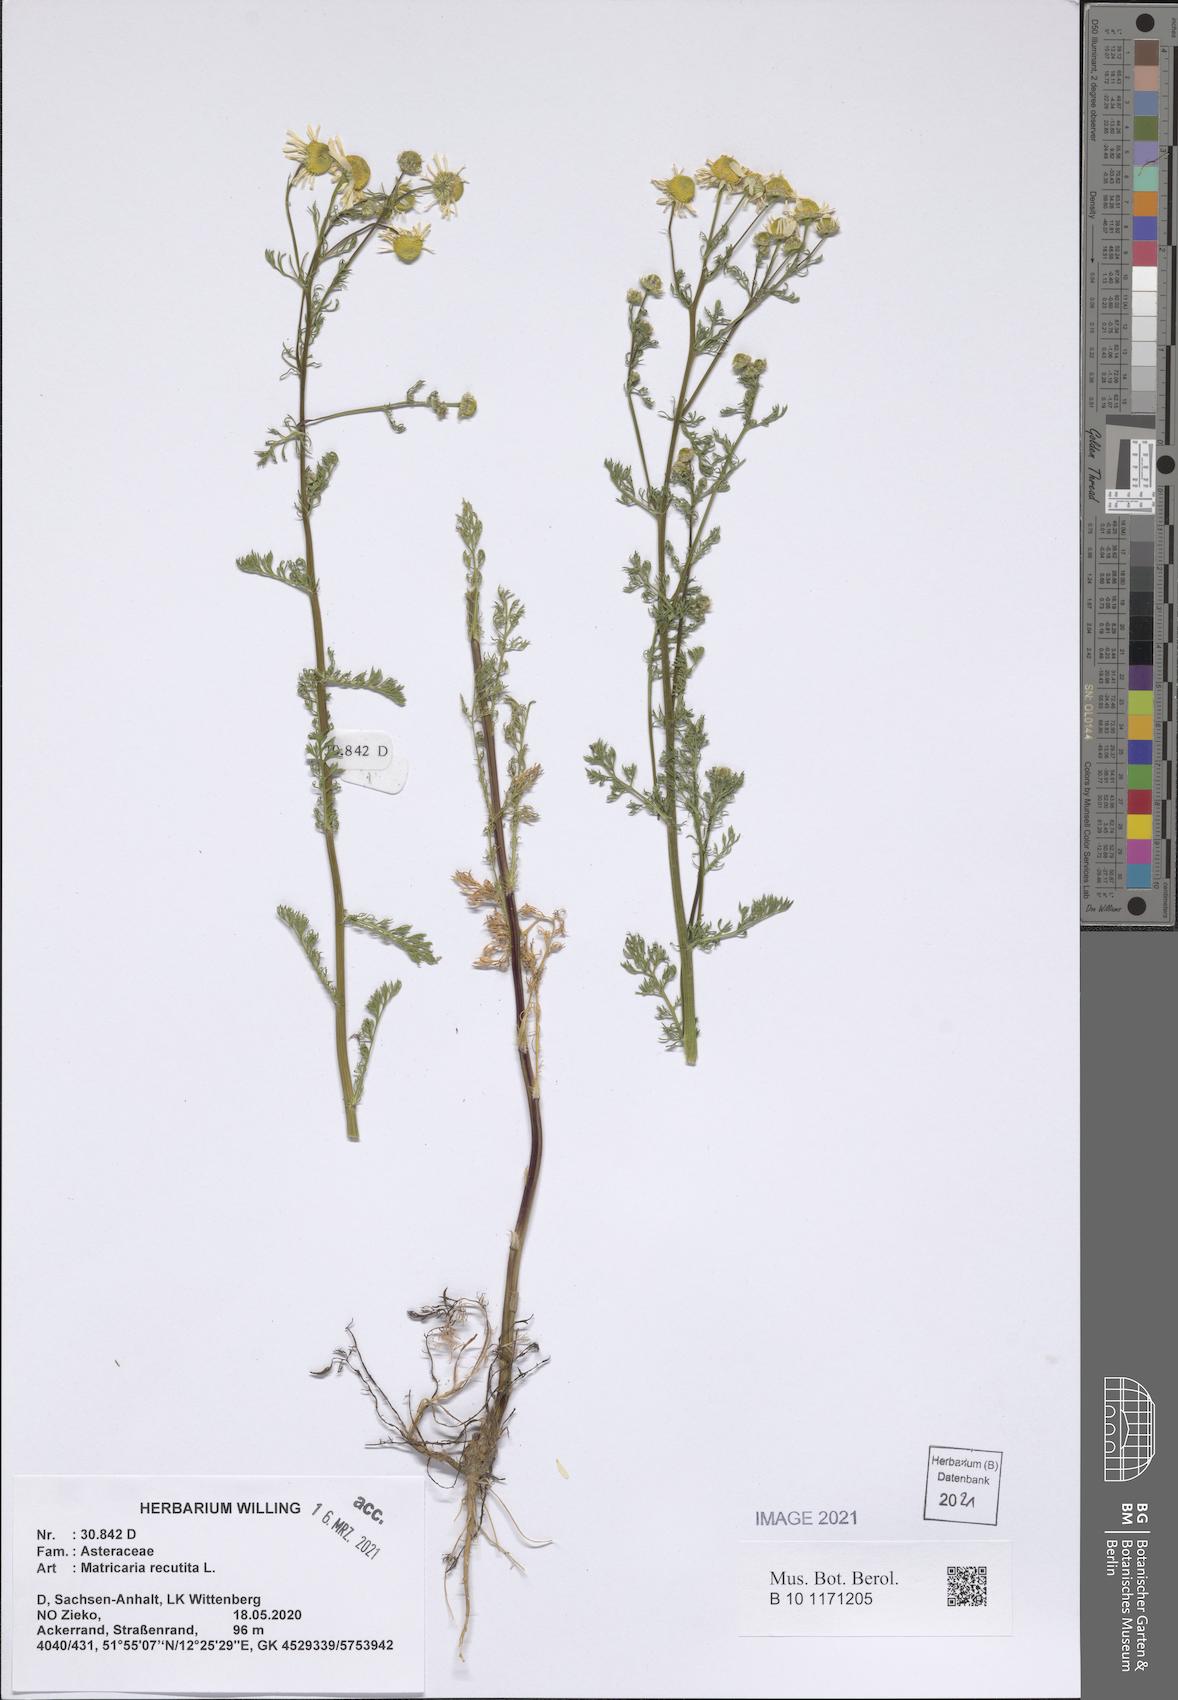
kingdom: Plantae
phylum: Tracheophyta
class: Magnoliopsida
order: Asterales
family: Asteraceae
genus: Matricaria
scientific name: Matricaria chamomilla
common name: Scented mayweed
